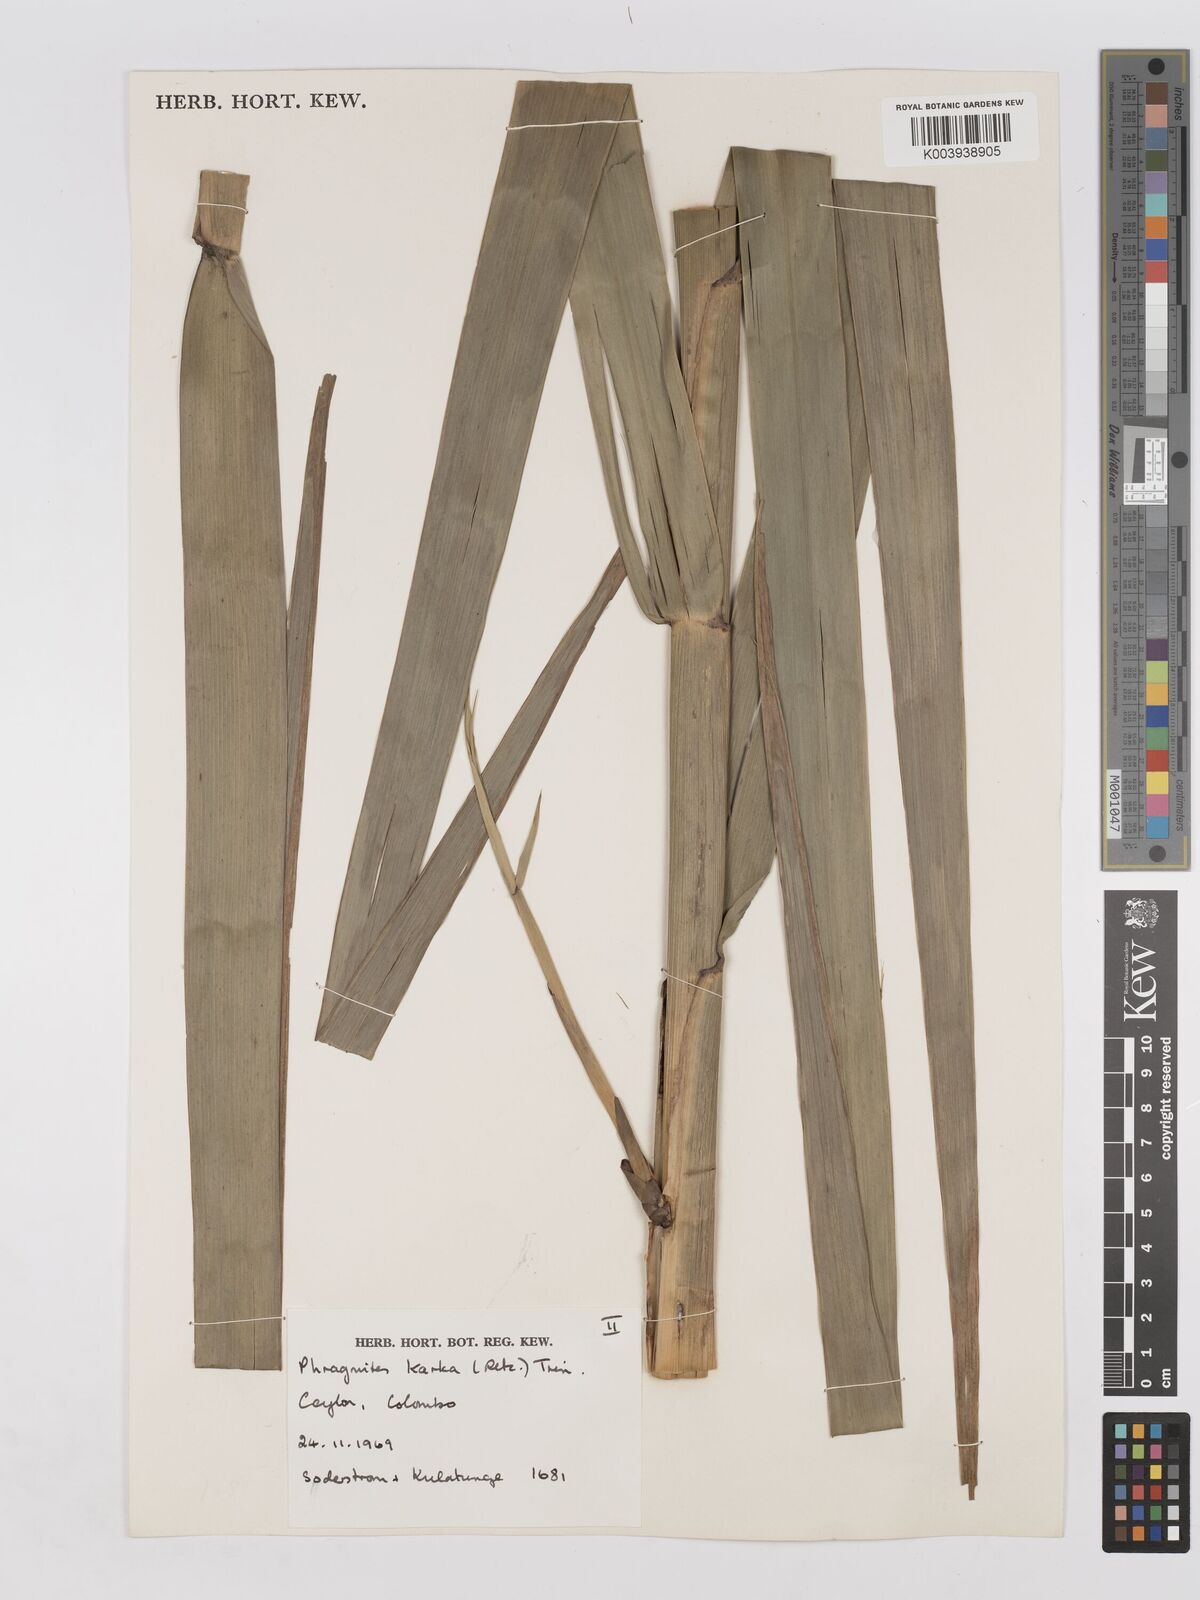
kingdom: Plantae
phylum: Tracheophyta
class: Liliopsida
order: Poales
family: Poaceae
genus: Phragmites
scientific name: Phragmites karka
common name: Tropical reed
